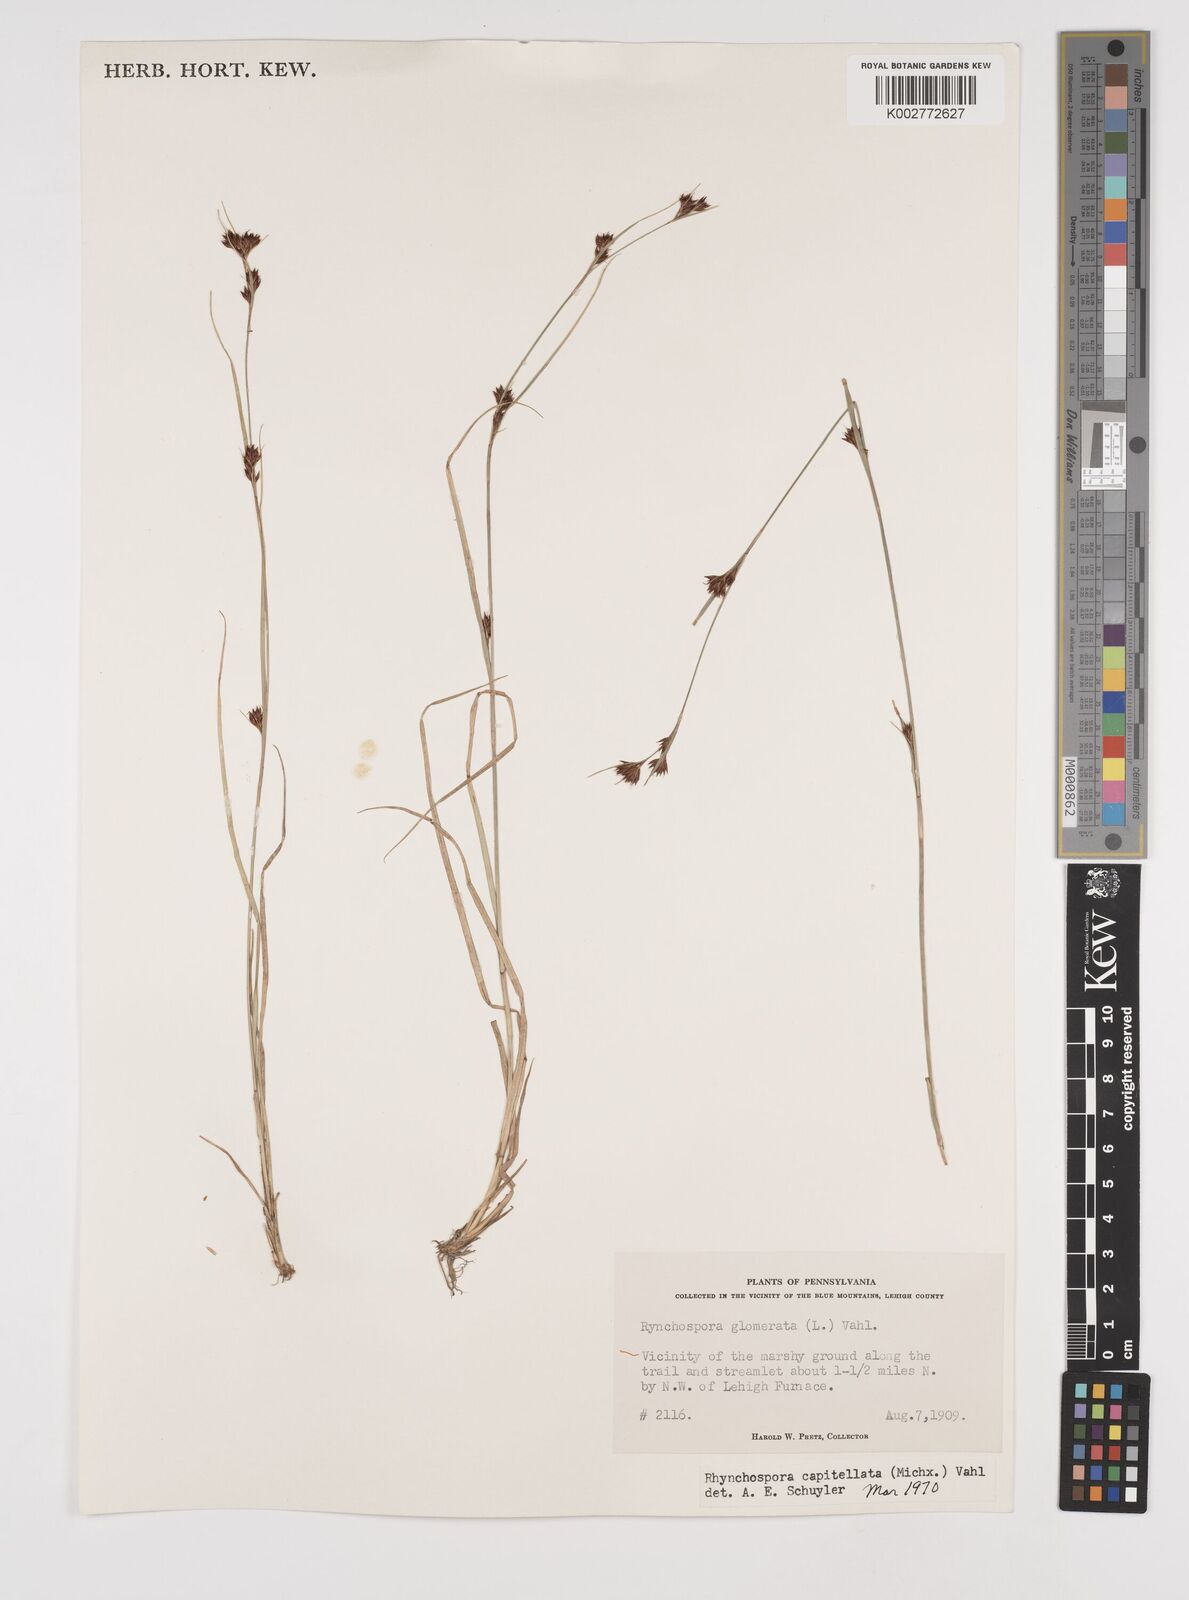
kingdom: Plantae
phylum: Tracheophyta
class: Liliopsida
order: Poales
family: Cyperaceae
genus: Rhynchospora
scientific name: Rhynchospora capitellata
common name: Brownish beaksedge
